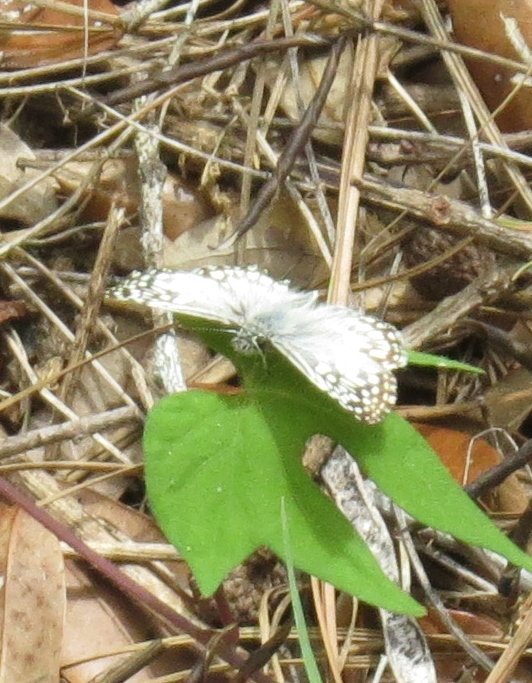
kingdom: Animalia
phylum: Arthropoda
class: Insecta
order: Lepidoptera
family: Hesperiidae
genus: Pyrgus
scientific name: Pyrgus oileus
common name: Tropical Checkered-Skipper
